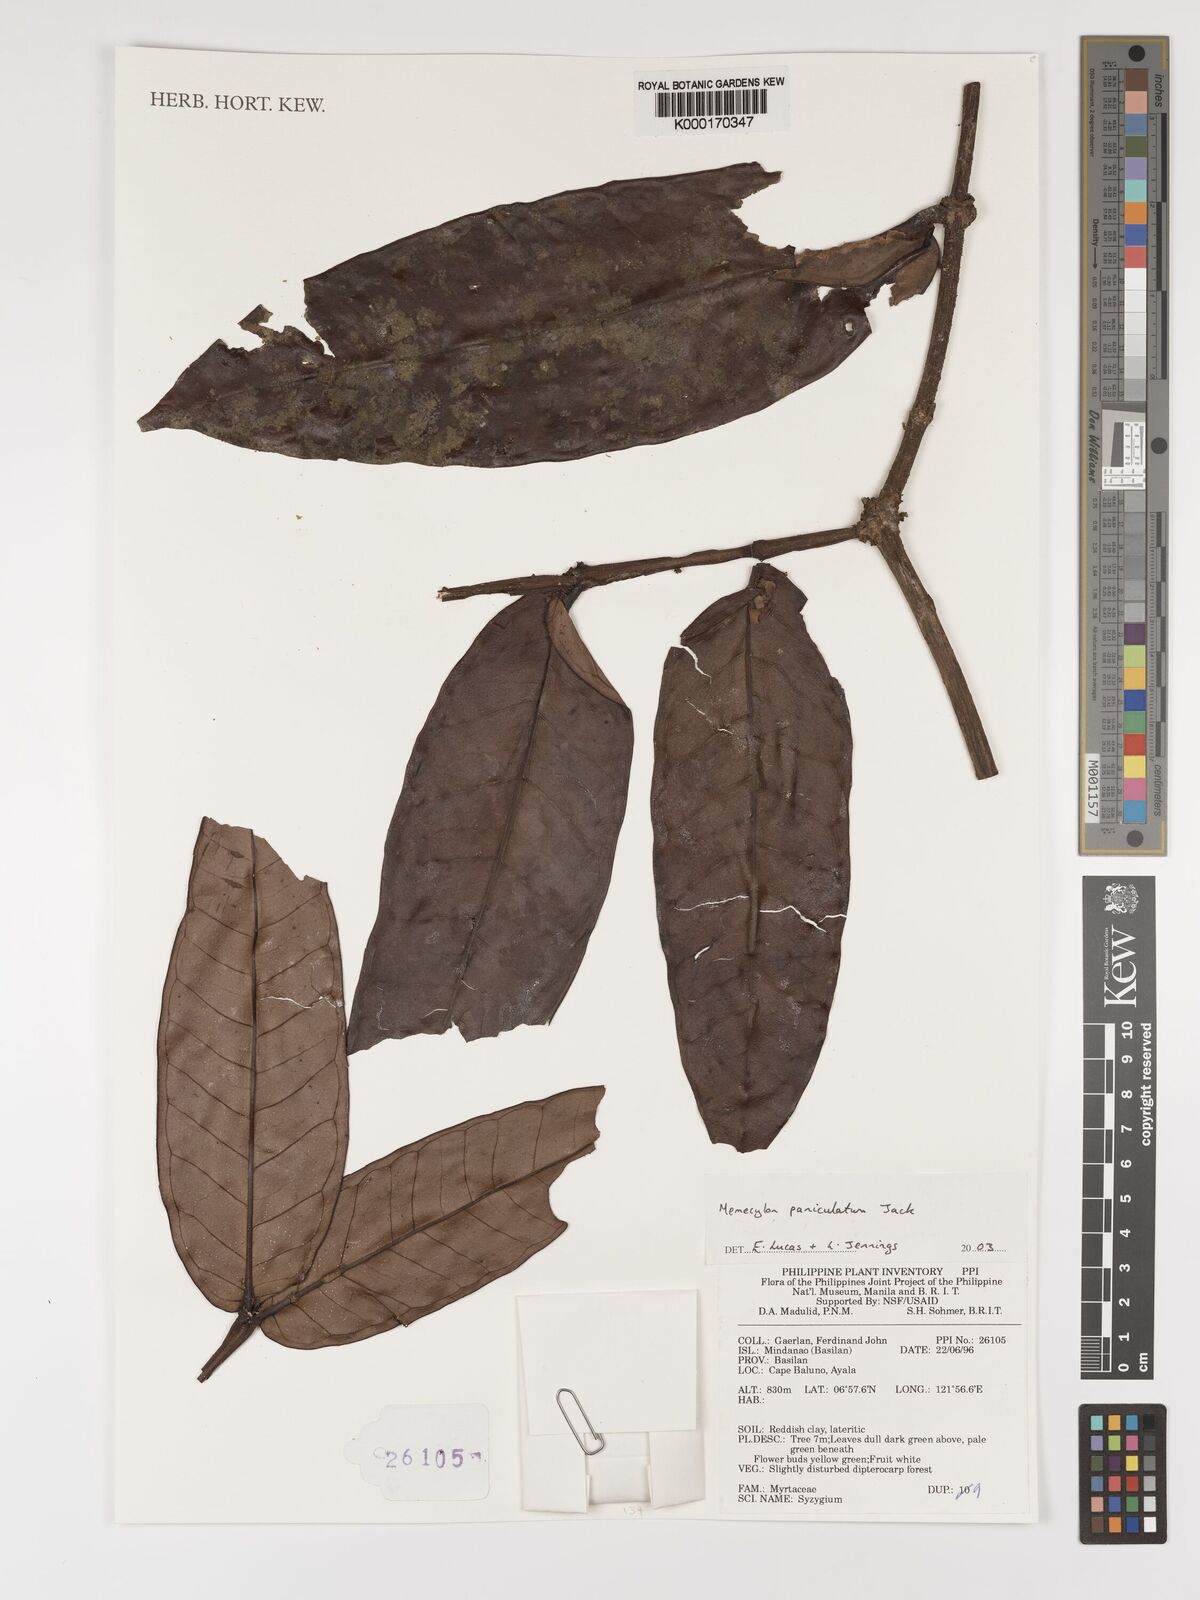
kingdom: Plantae
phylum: Tracheophyta
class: Magnoliopsida
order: Myrtales
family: Melastomataceae
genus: Memecylon
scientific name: Memecylon paniculatum
